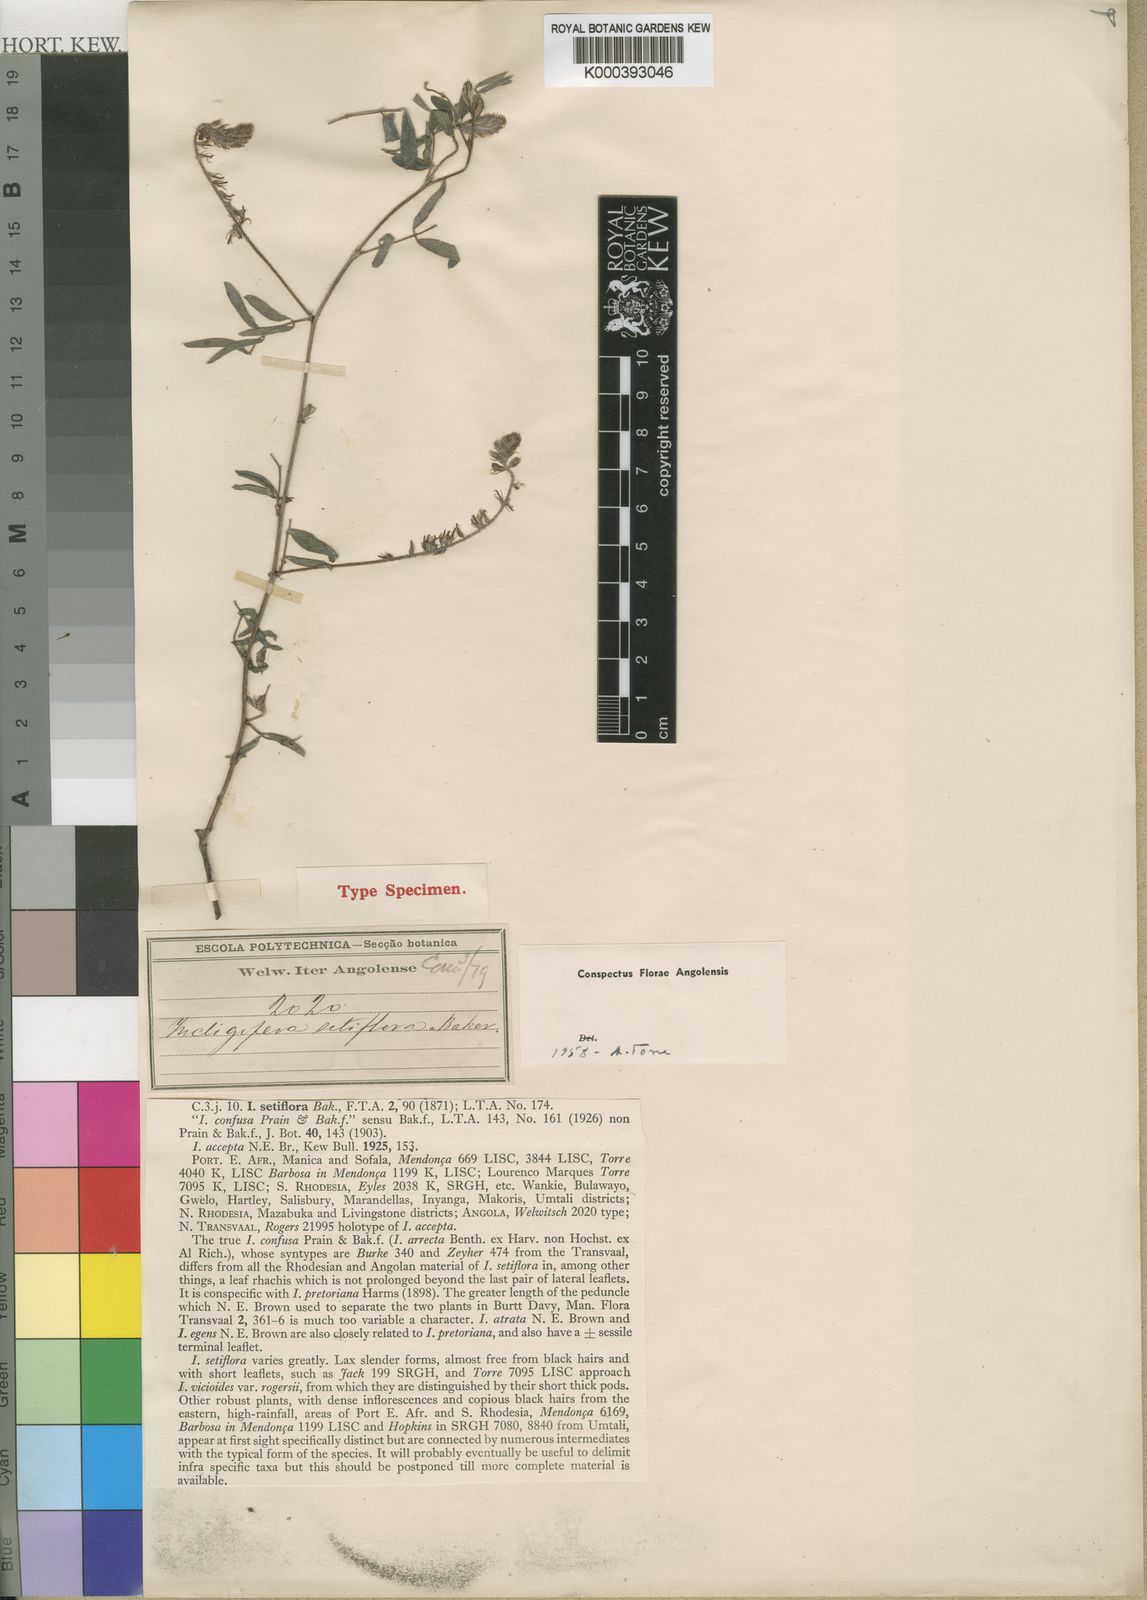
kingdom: Plantae
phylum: Tracheophyta
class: Magnoliopsida
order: Fabales
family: Fabaceae
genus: Indigofera
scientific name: Indigofera setiflora
